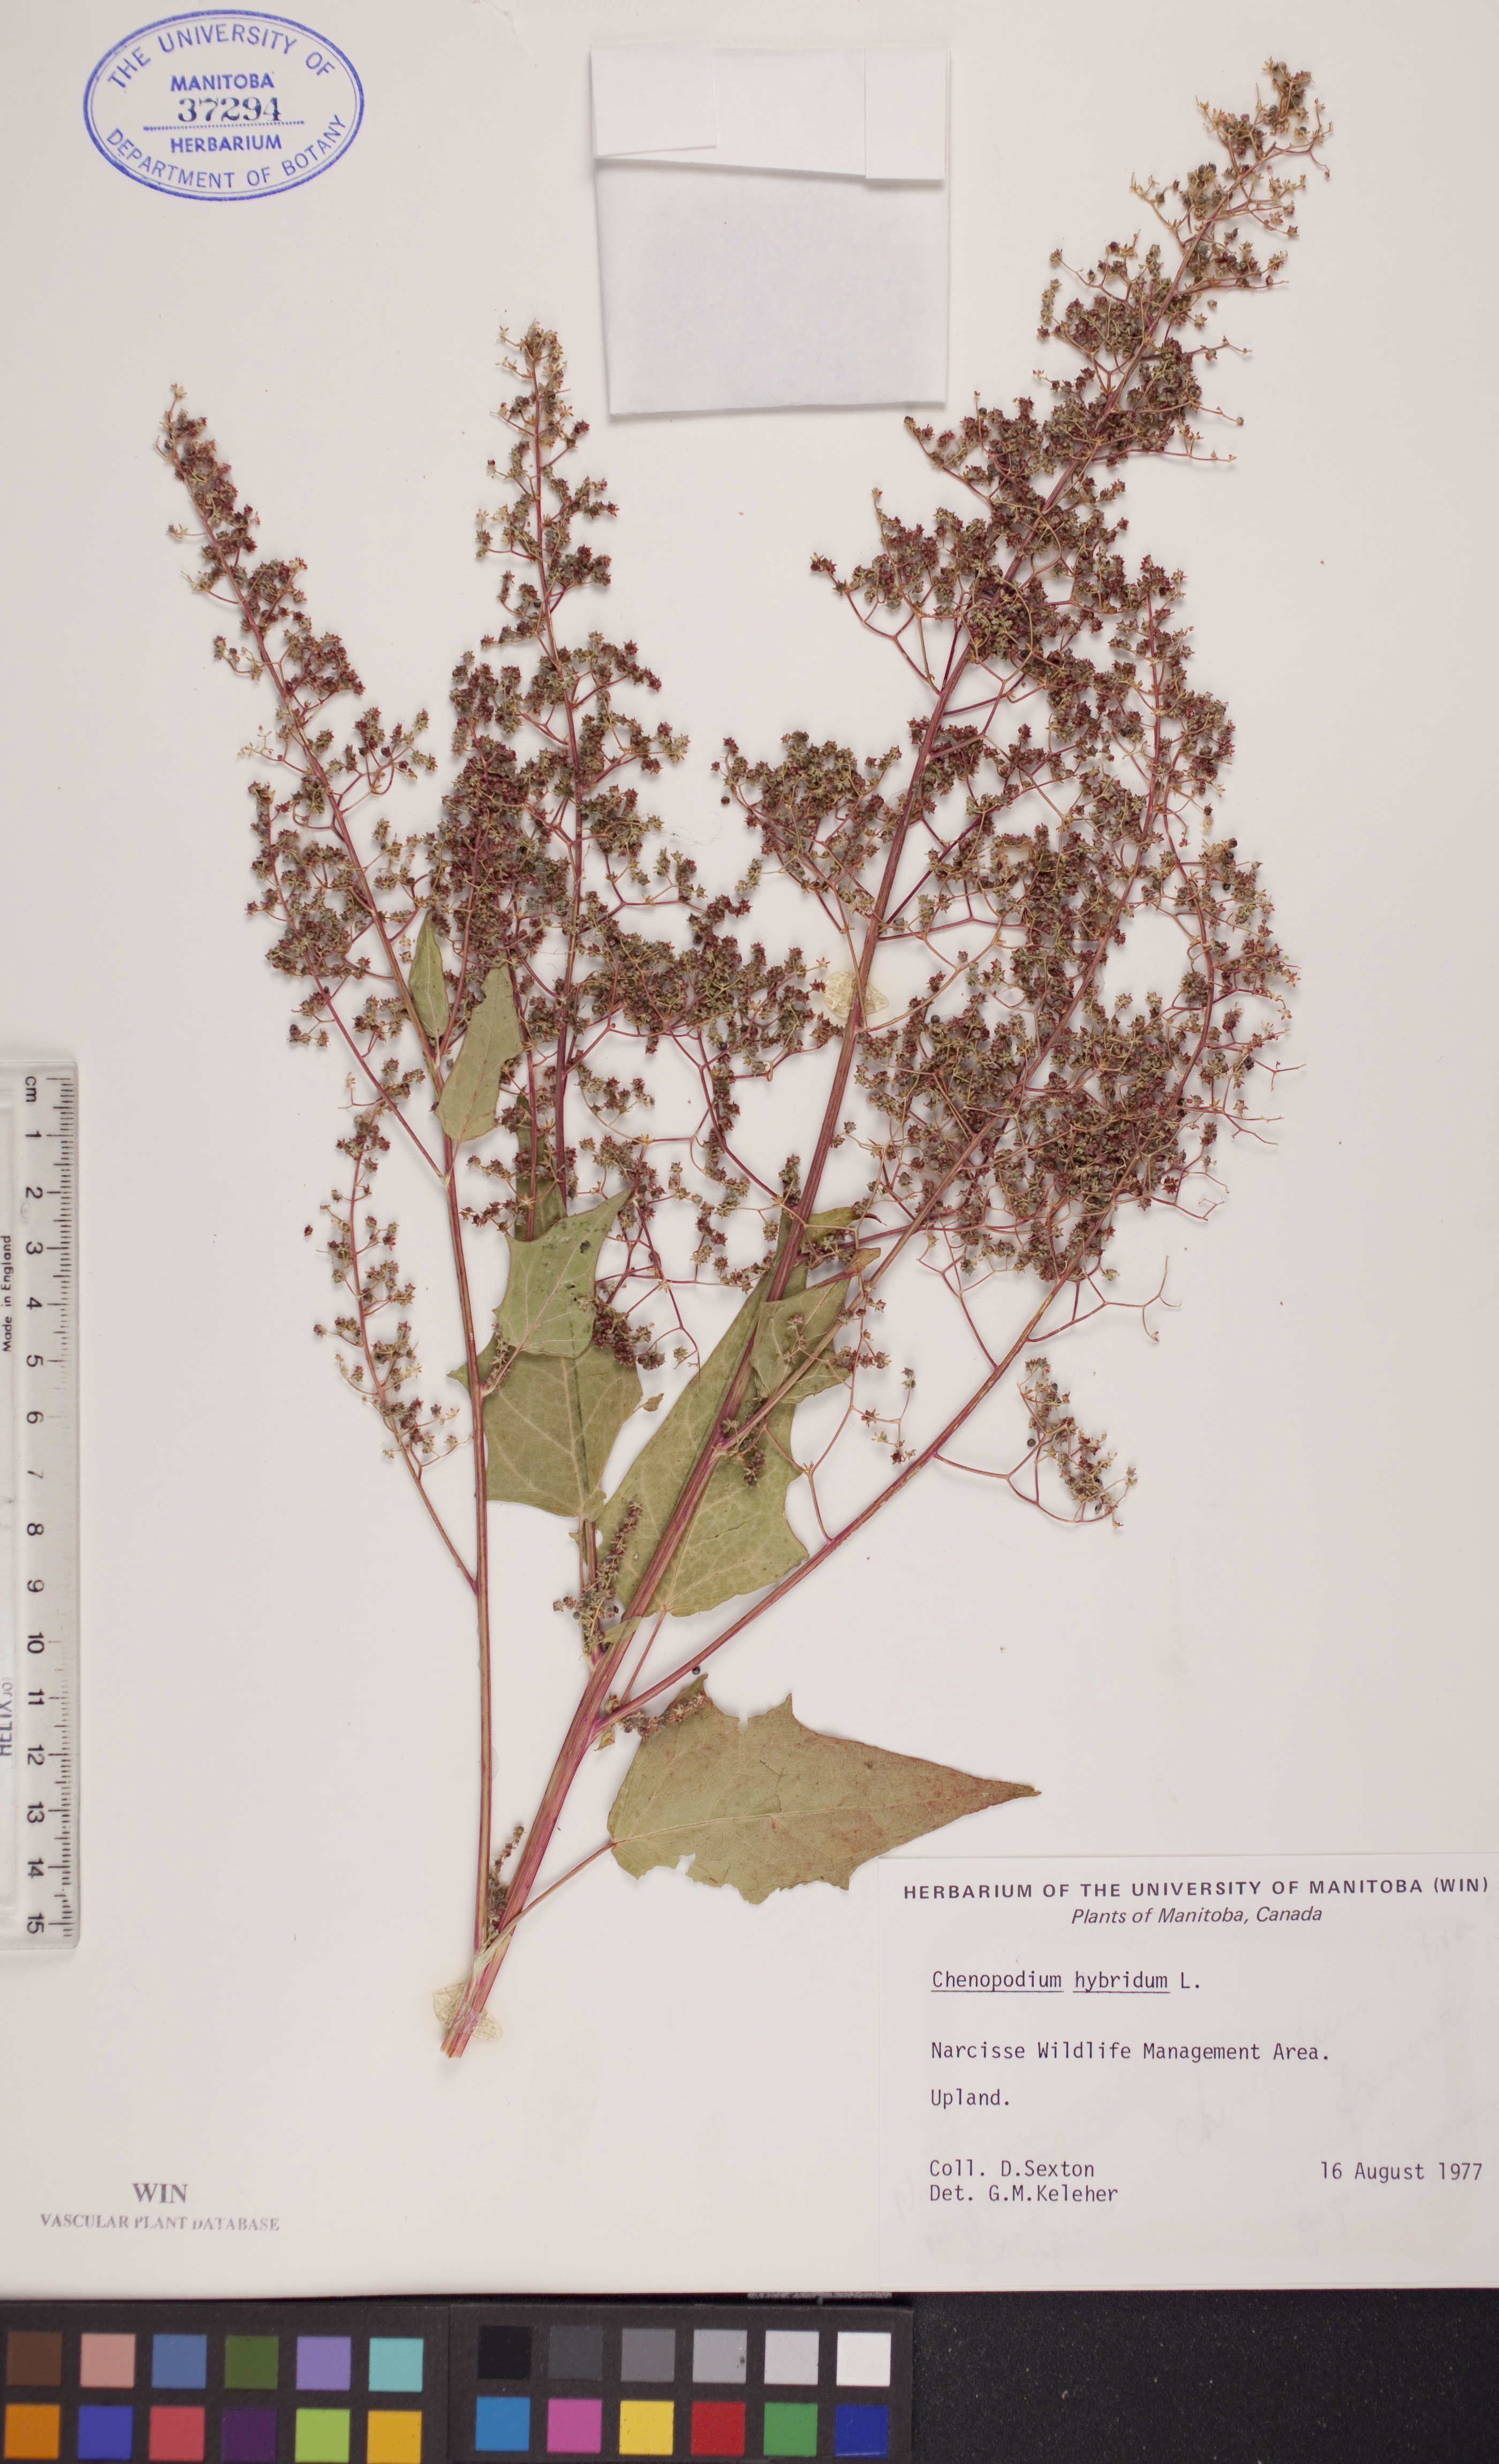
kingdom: Plantae
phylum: Tracheophyta
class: Magnoliopsida
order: Caryophyllales
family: Amaranthaceae
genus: Chenopodiastrum
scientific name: Chenopodiastrum hybridum
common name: Mapleleaf goosefoot
